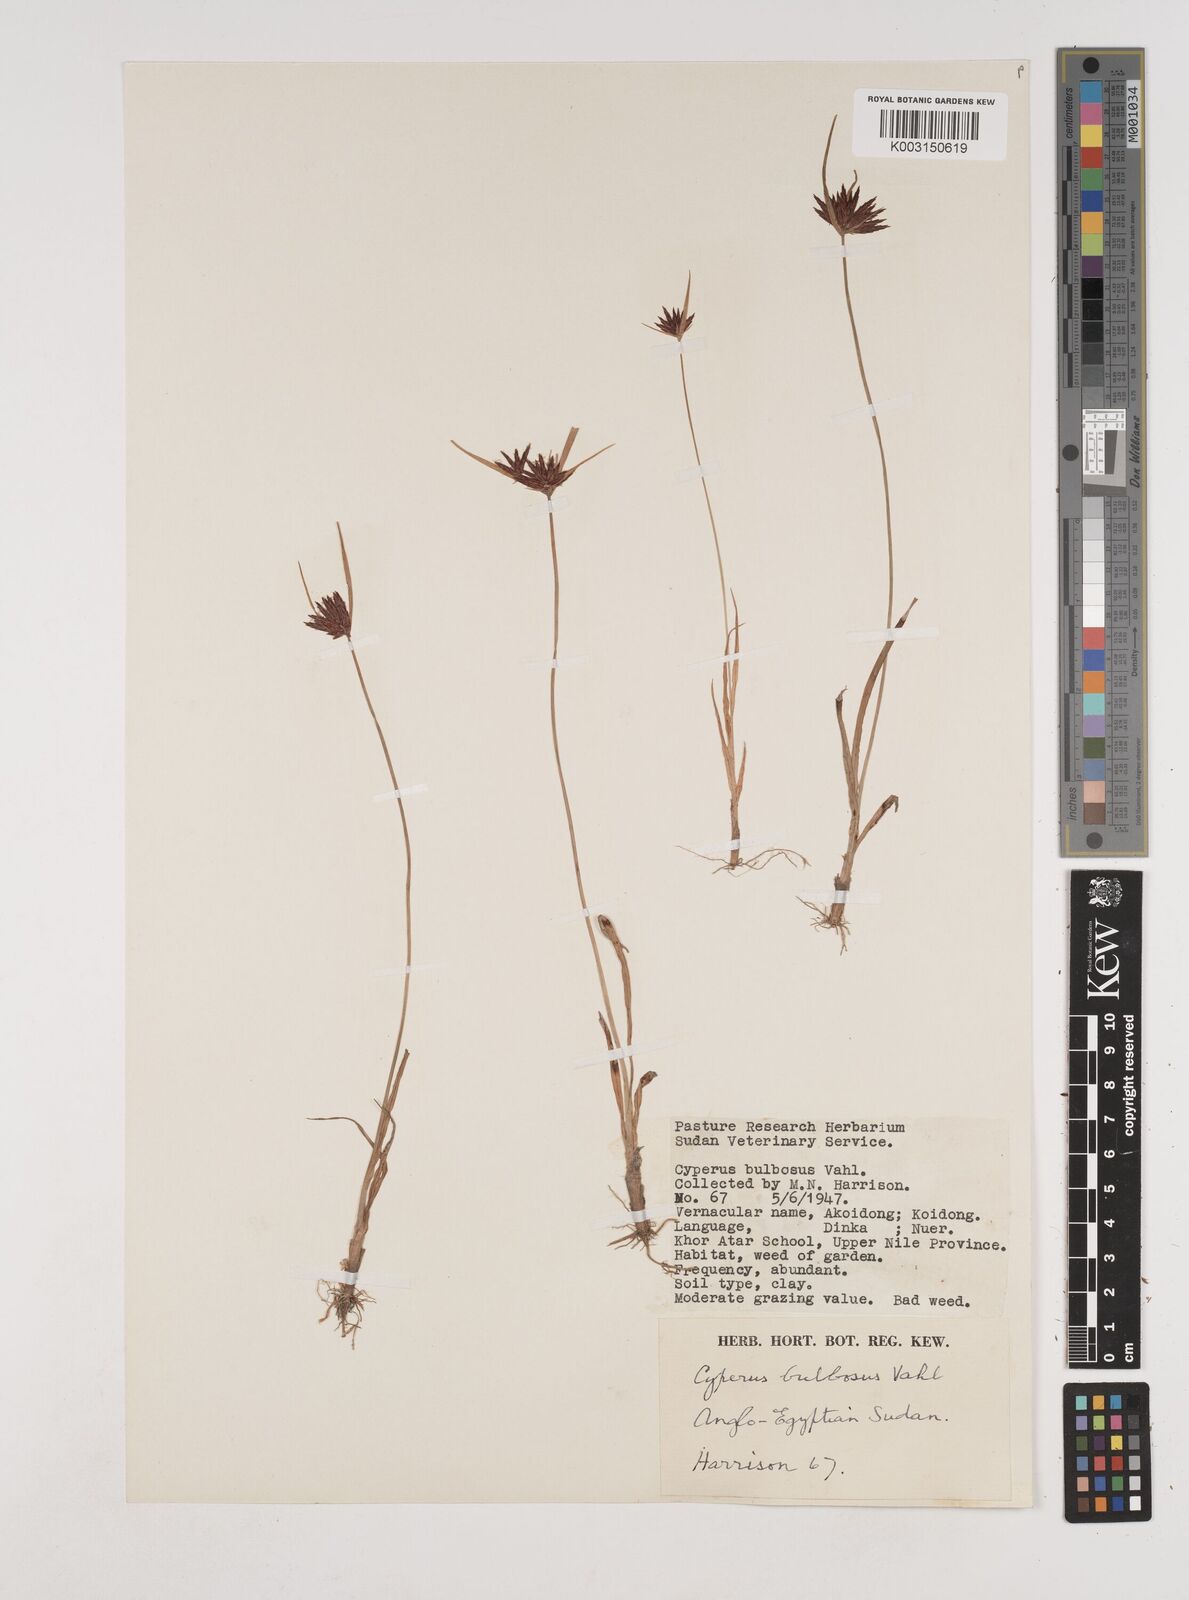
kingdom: Plantae
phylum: Tracheophyta
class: Liliopsida
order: Poales
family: Cyperaceae
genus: Cyperus
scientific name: Cyperus bulbosus
